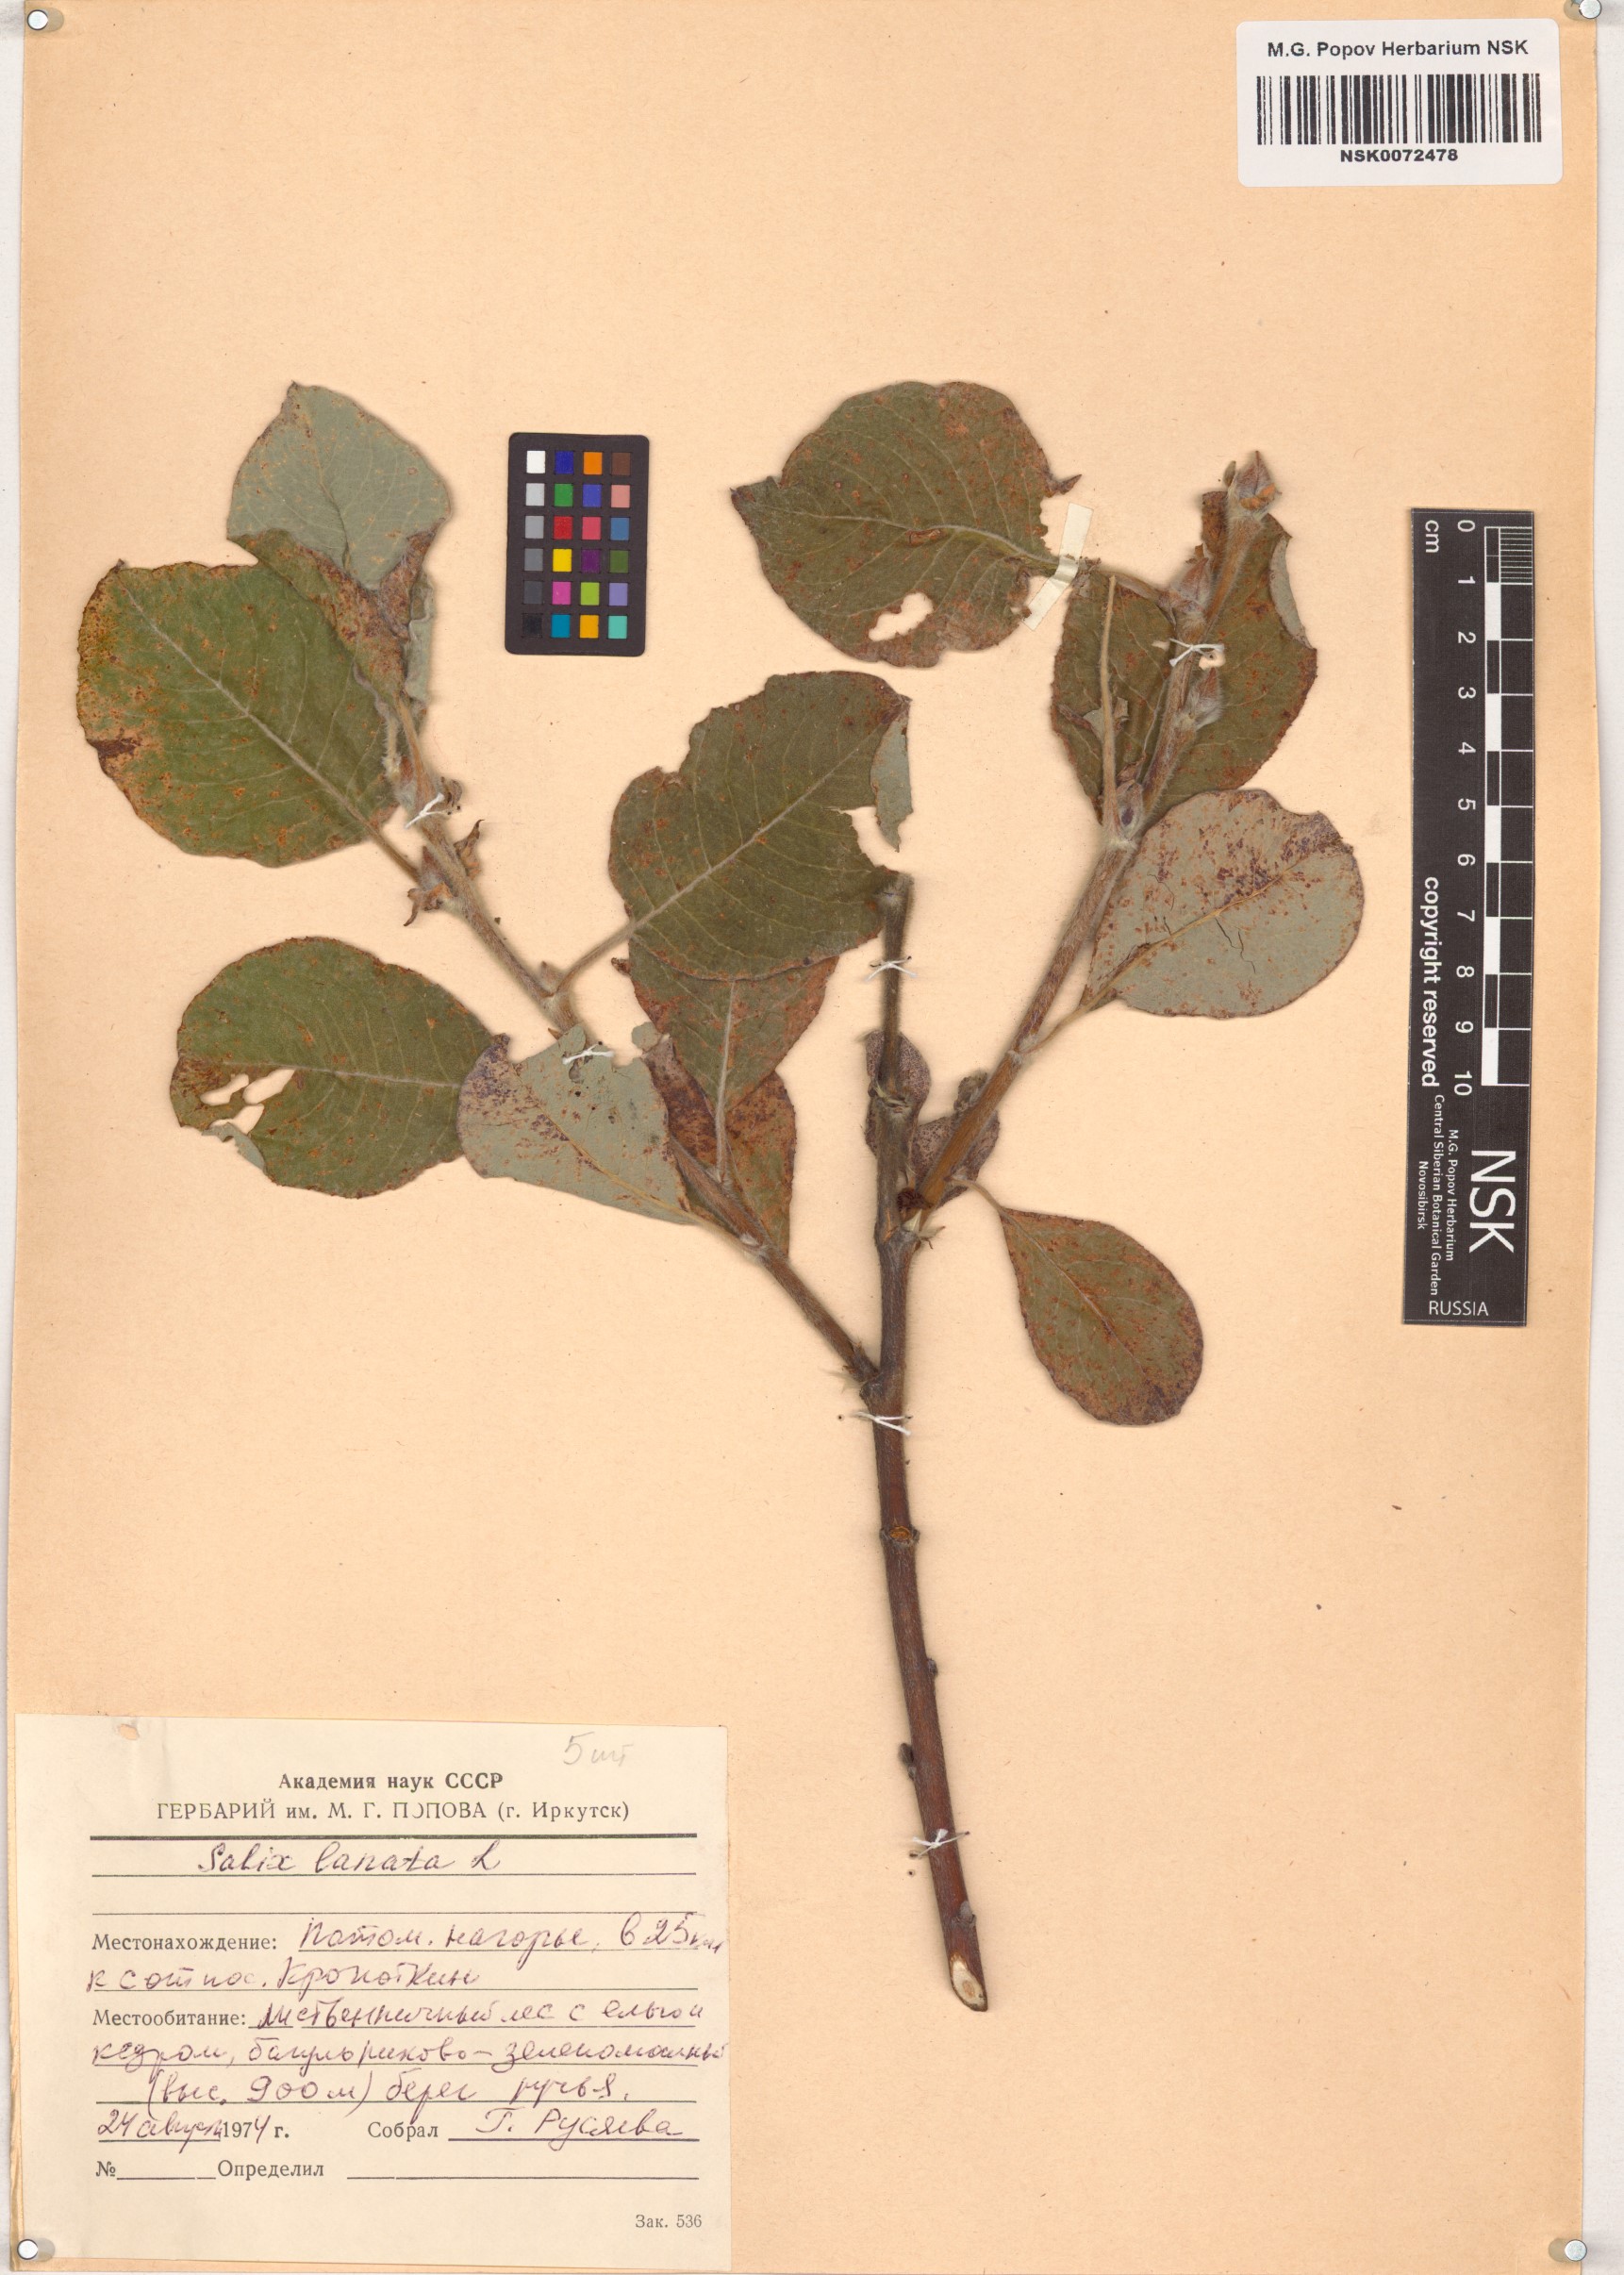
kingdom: Plantae
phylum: Tracheophyta
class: Magnoliopsida
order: Malpighiales
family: Salicaceae
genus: Salix
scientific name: Salix lanata
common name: Woolly willow
